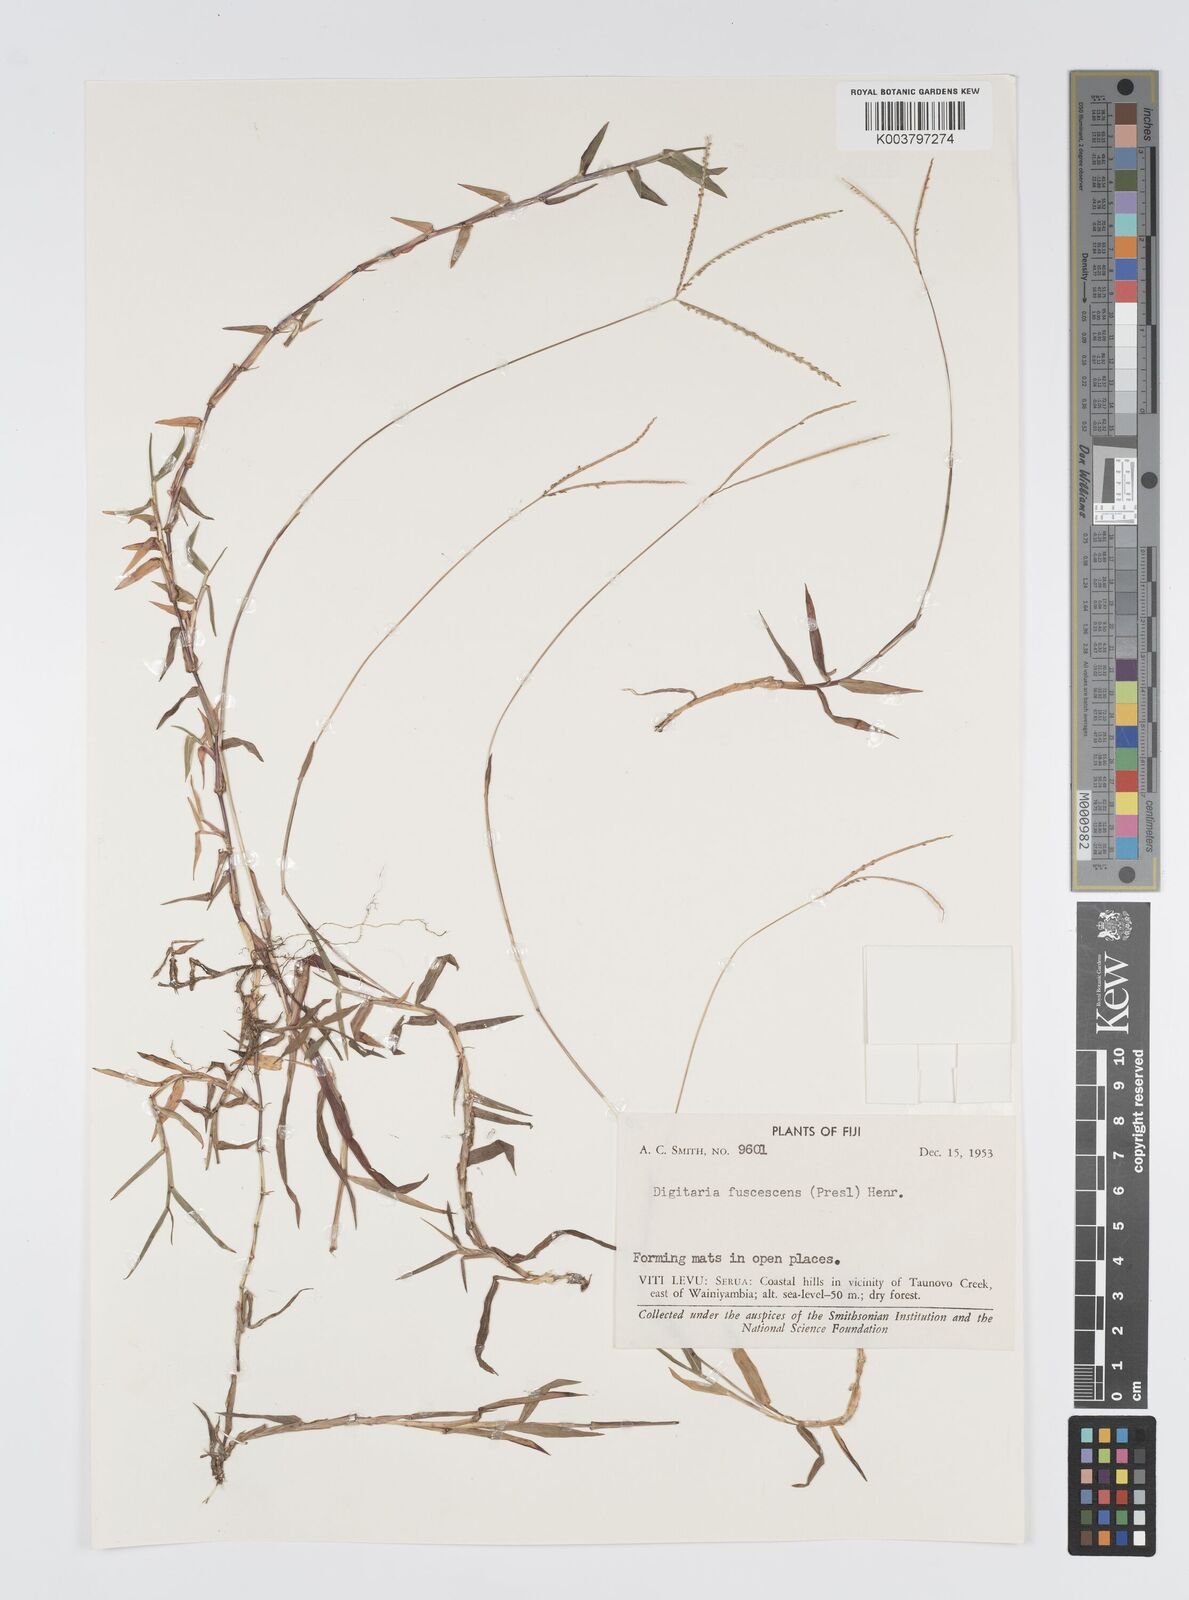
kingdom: Plantae
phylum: Tracheophyta
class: Liliopsida
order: Poales
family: Poaceae
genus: Digitaria
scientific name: Digitaria fuscescens
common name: Yellow crabgrass
